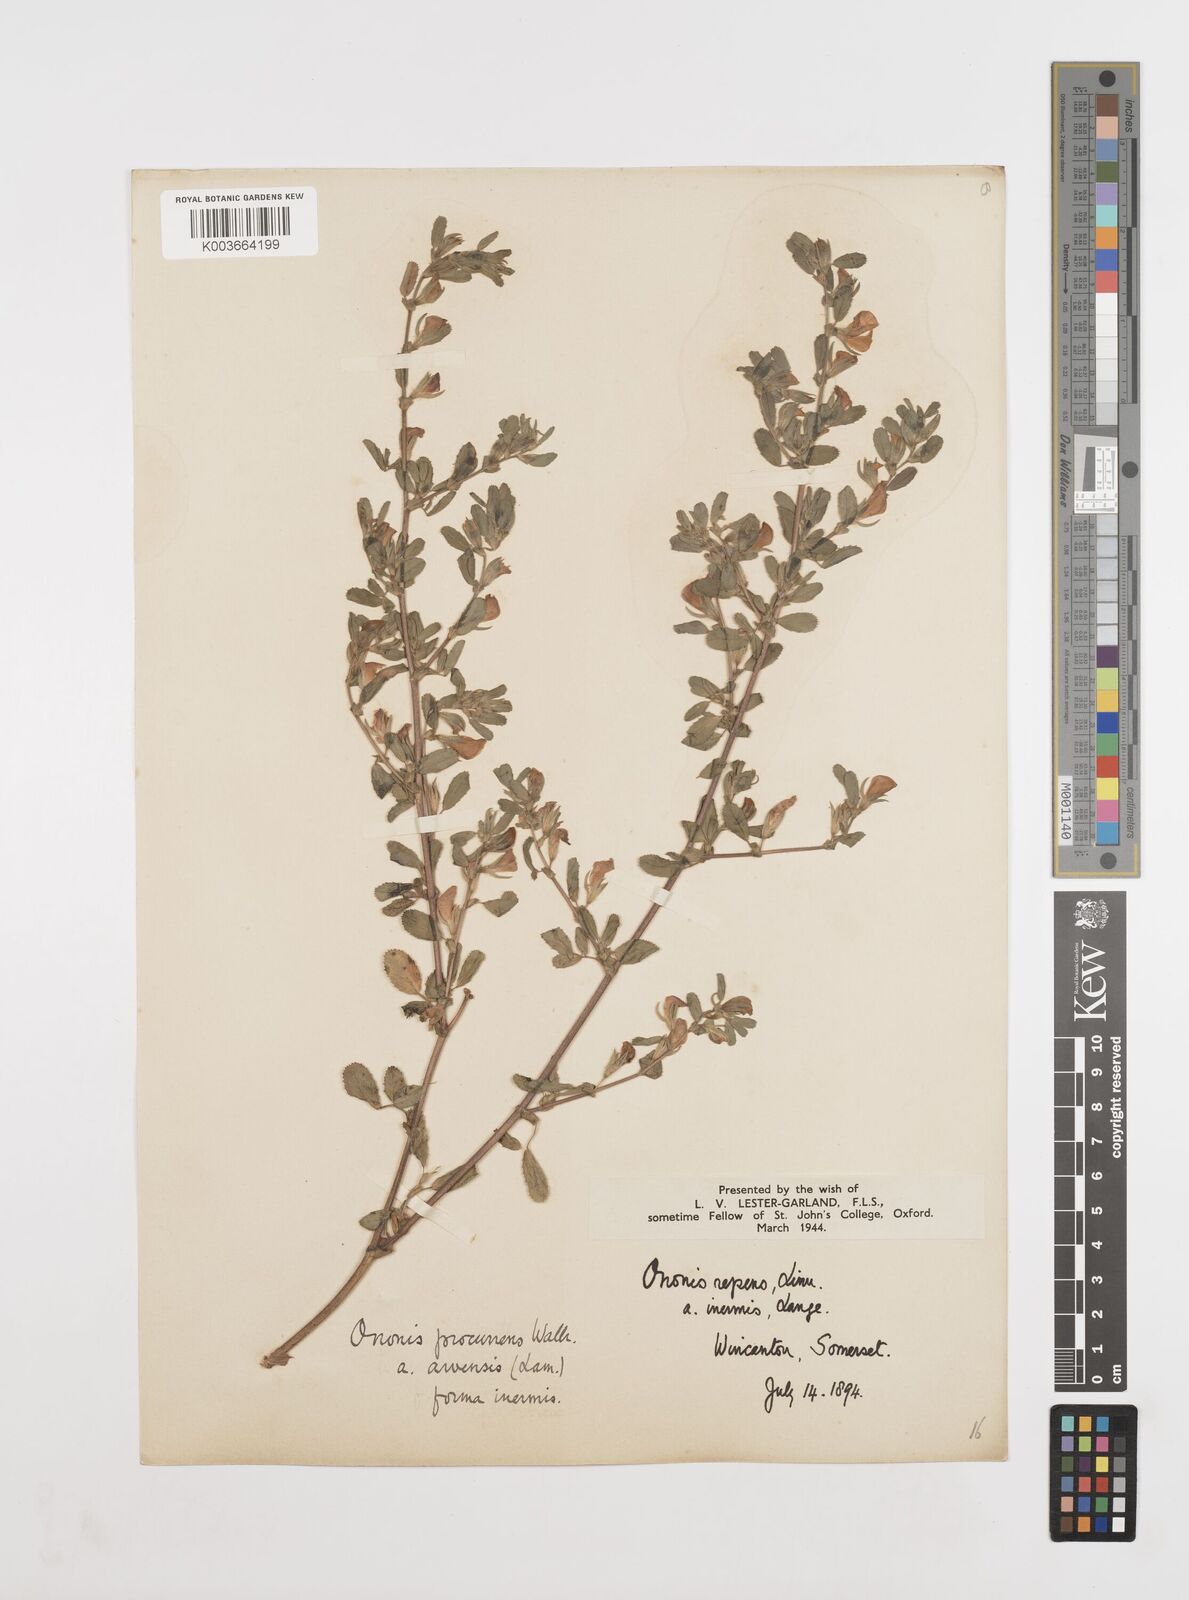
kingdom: Plantae
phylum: Tracheophyta
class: Magnoliopsida
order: Fabales
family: Fabaceae
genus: Ononis
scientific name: Ononis spinosa
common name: Spiny restharrow
